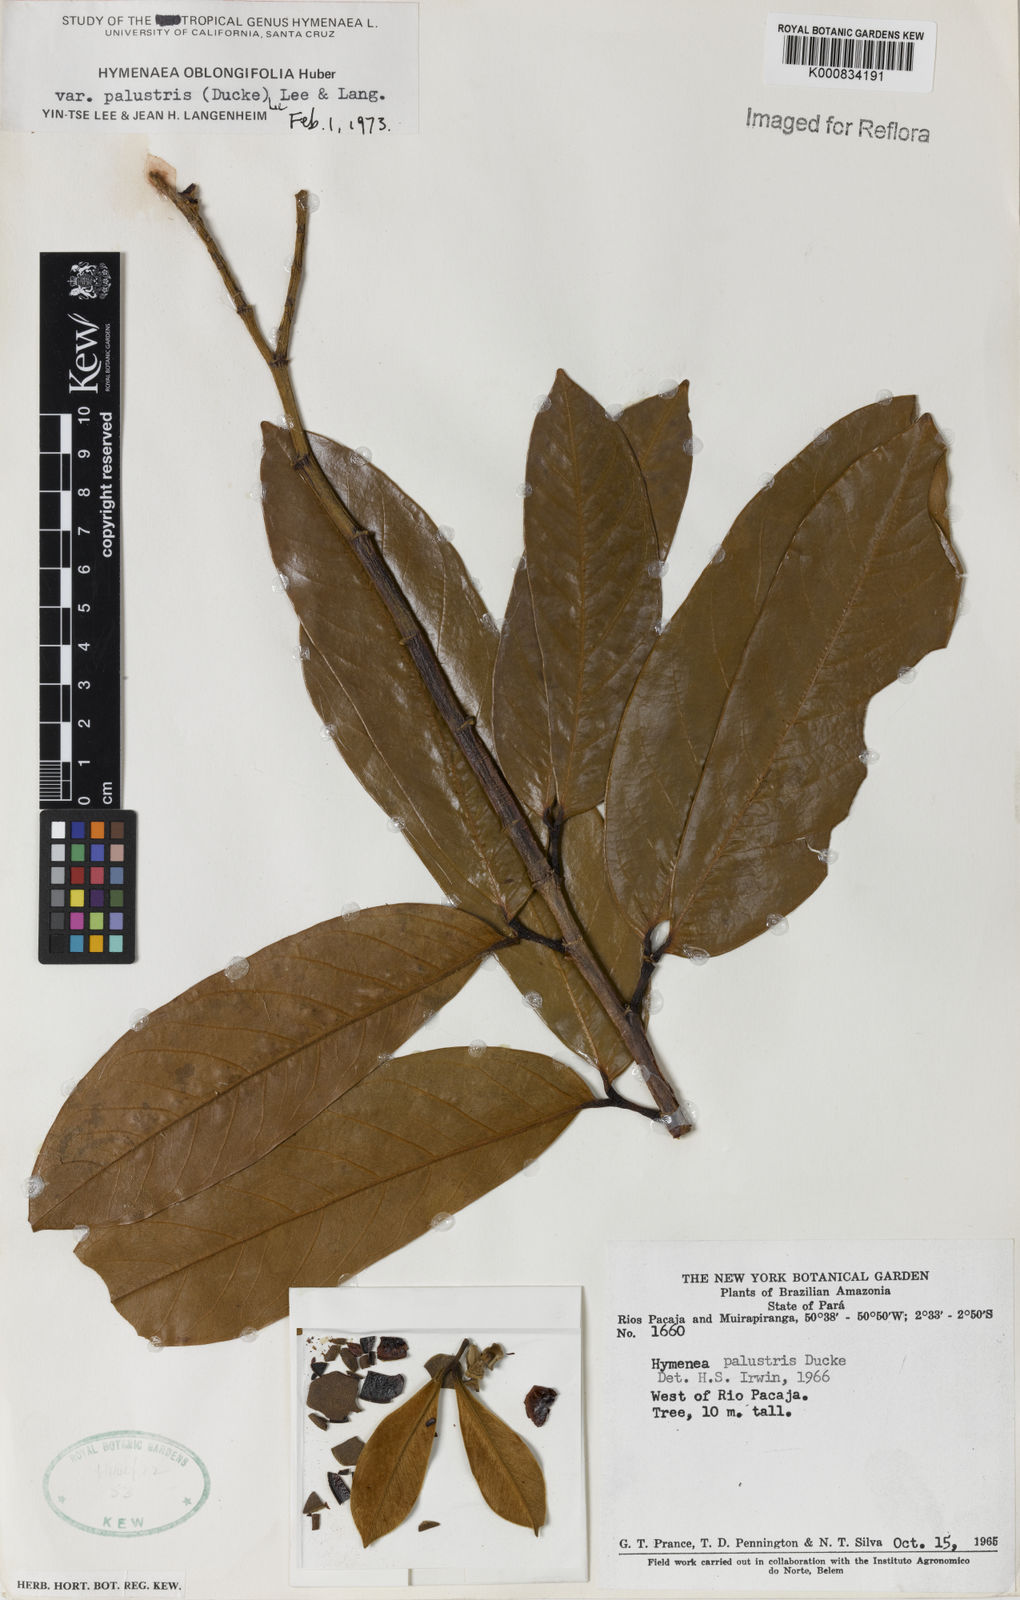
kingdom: Plantae
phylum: Tracheophyta
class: Magnoliopsida
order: Fabales
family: Fabaceae
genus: Hymenaea
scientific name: Hymenaea oblongifolia
